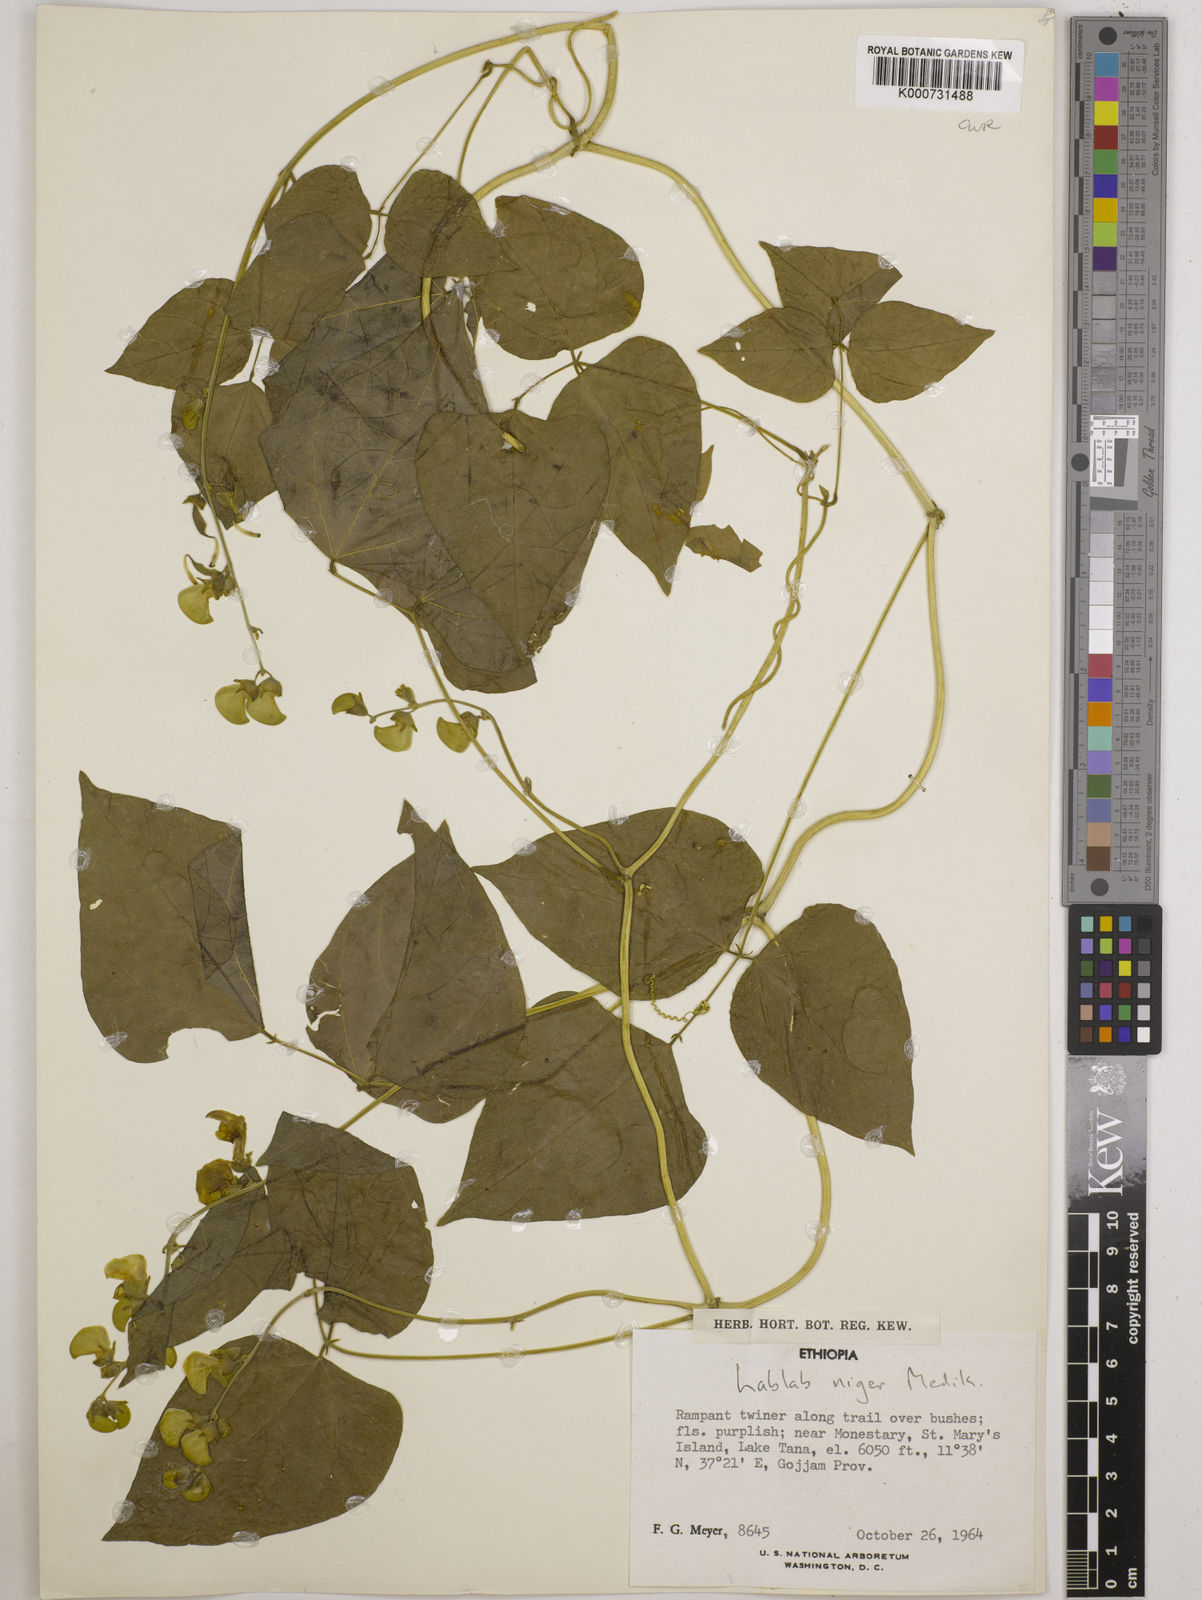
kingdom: Plantae
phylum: Tracheophyta
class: Magnoliopsida
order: Fabales
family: Fabaceae
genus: Lablab
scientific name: Lablab purpureus
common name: Lablab-bean
